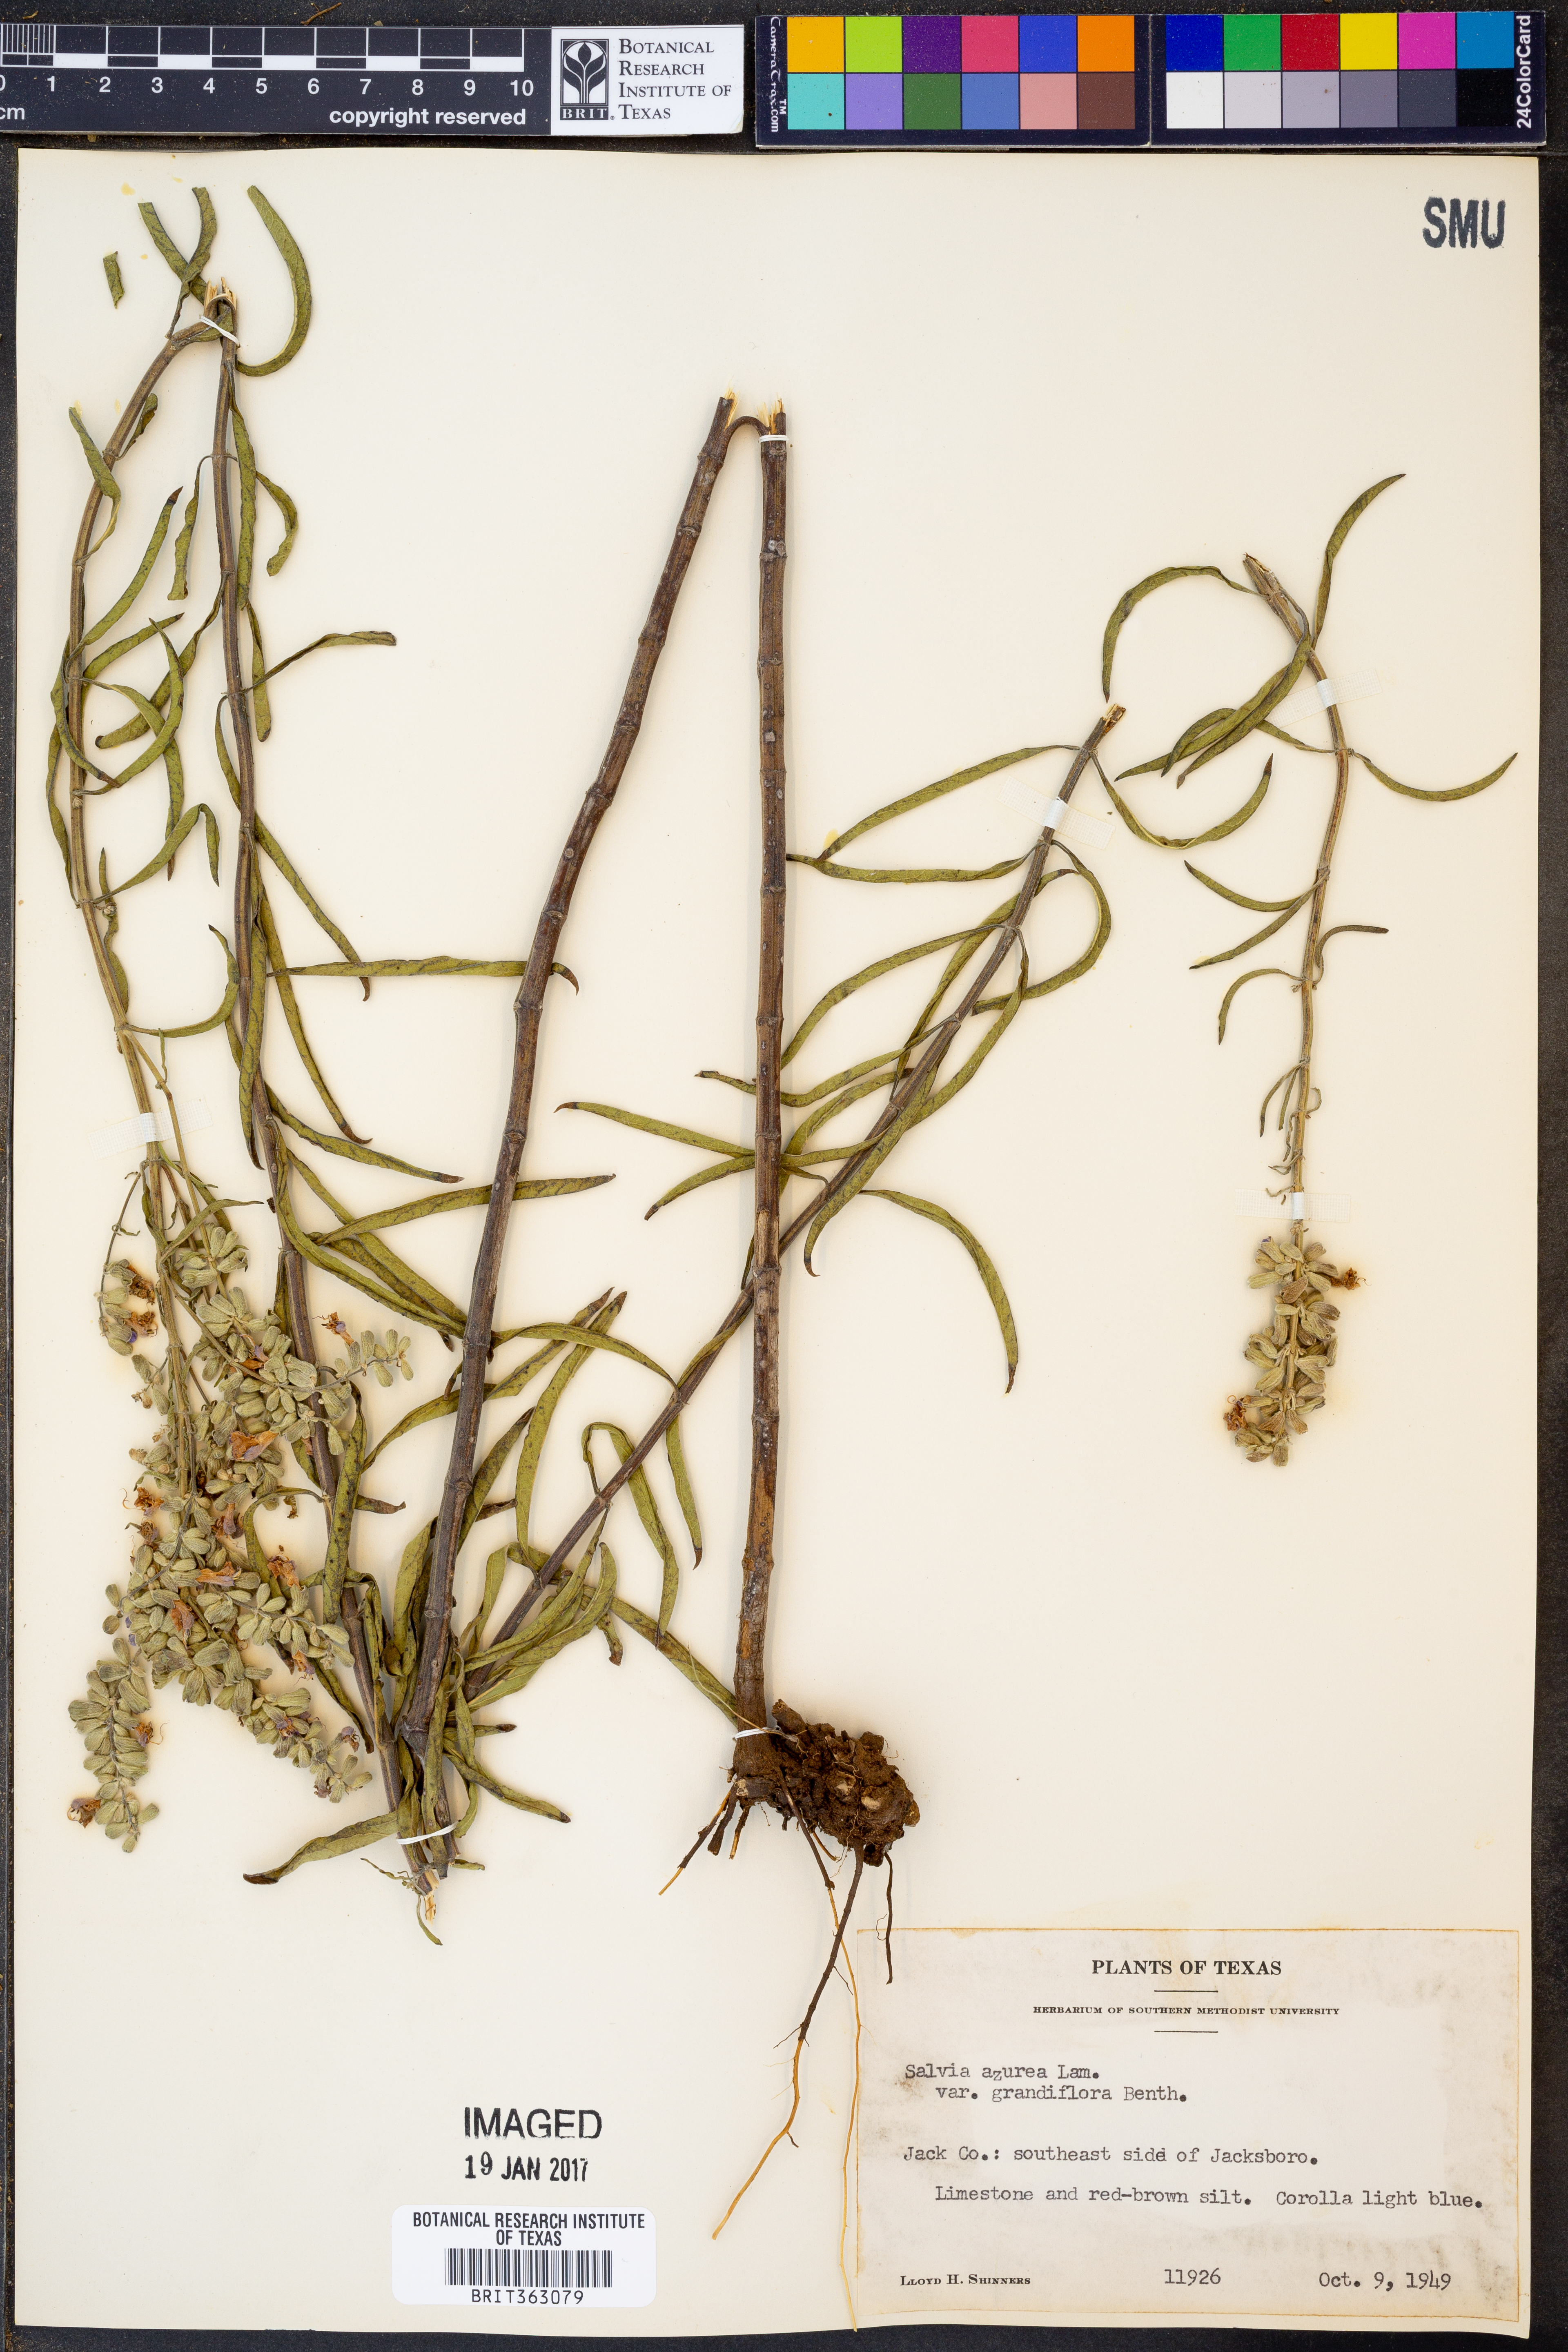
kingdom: Plantae
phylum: Tracheophyta
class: Magnoliopsida
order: Lamiales
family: Lamiaceae
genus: Salvia
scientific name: Salvia azurea
